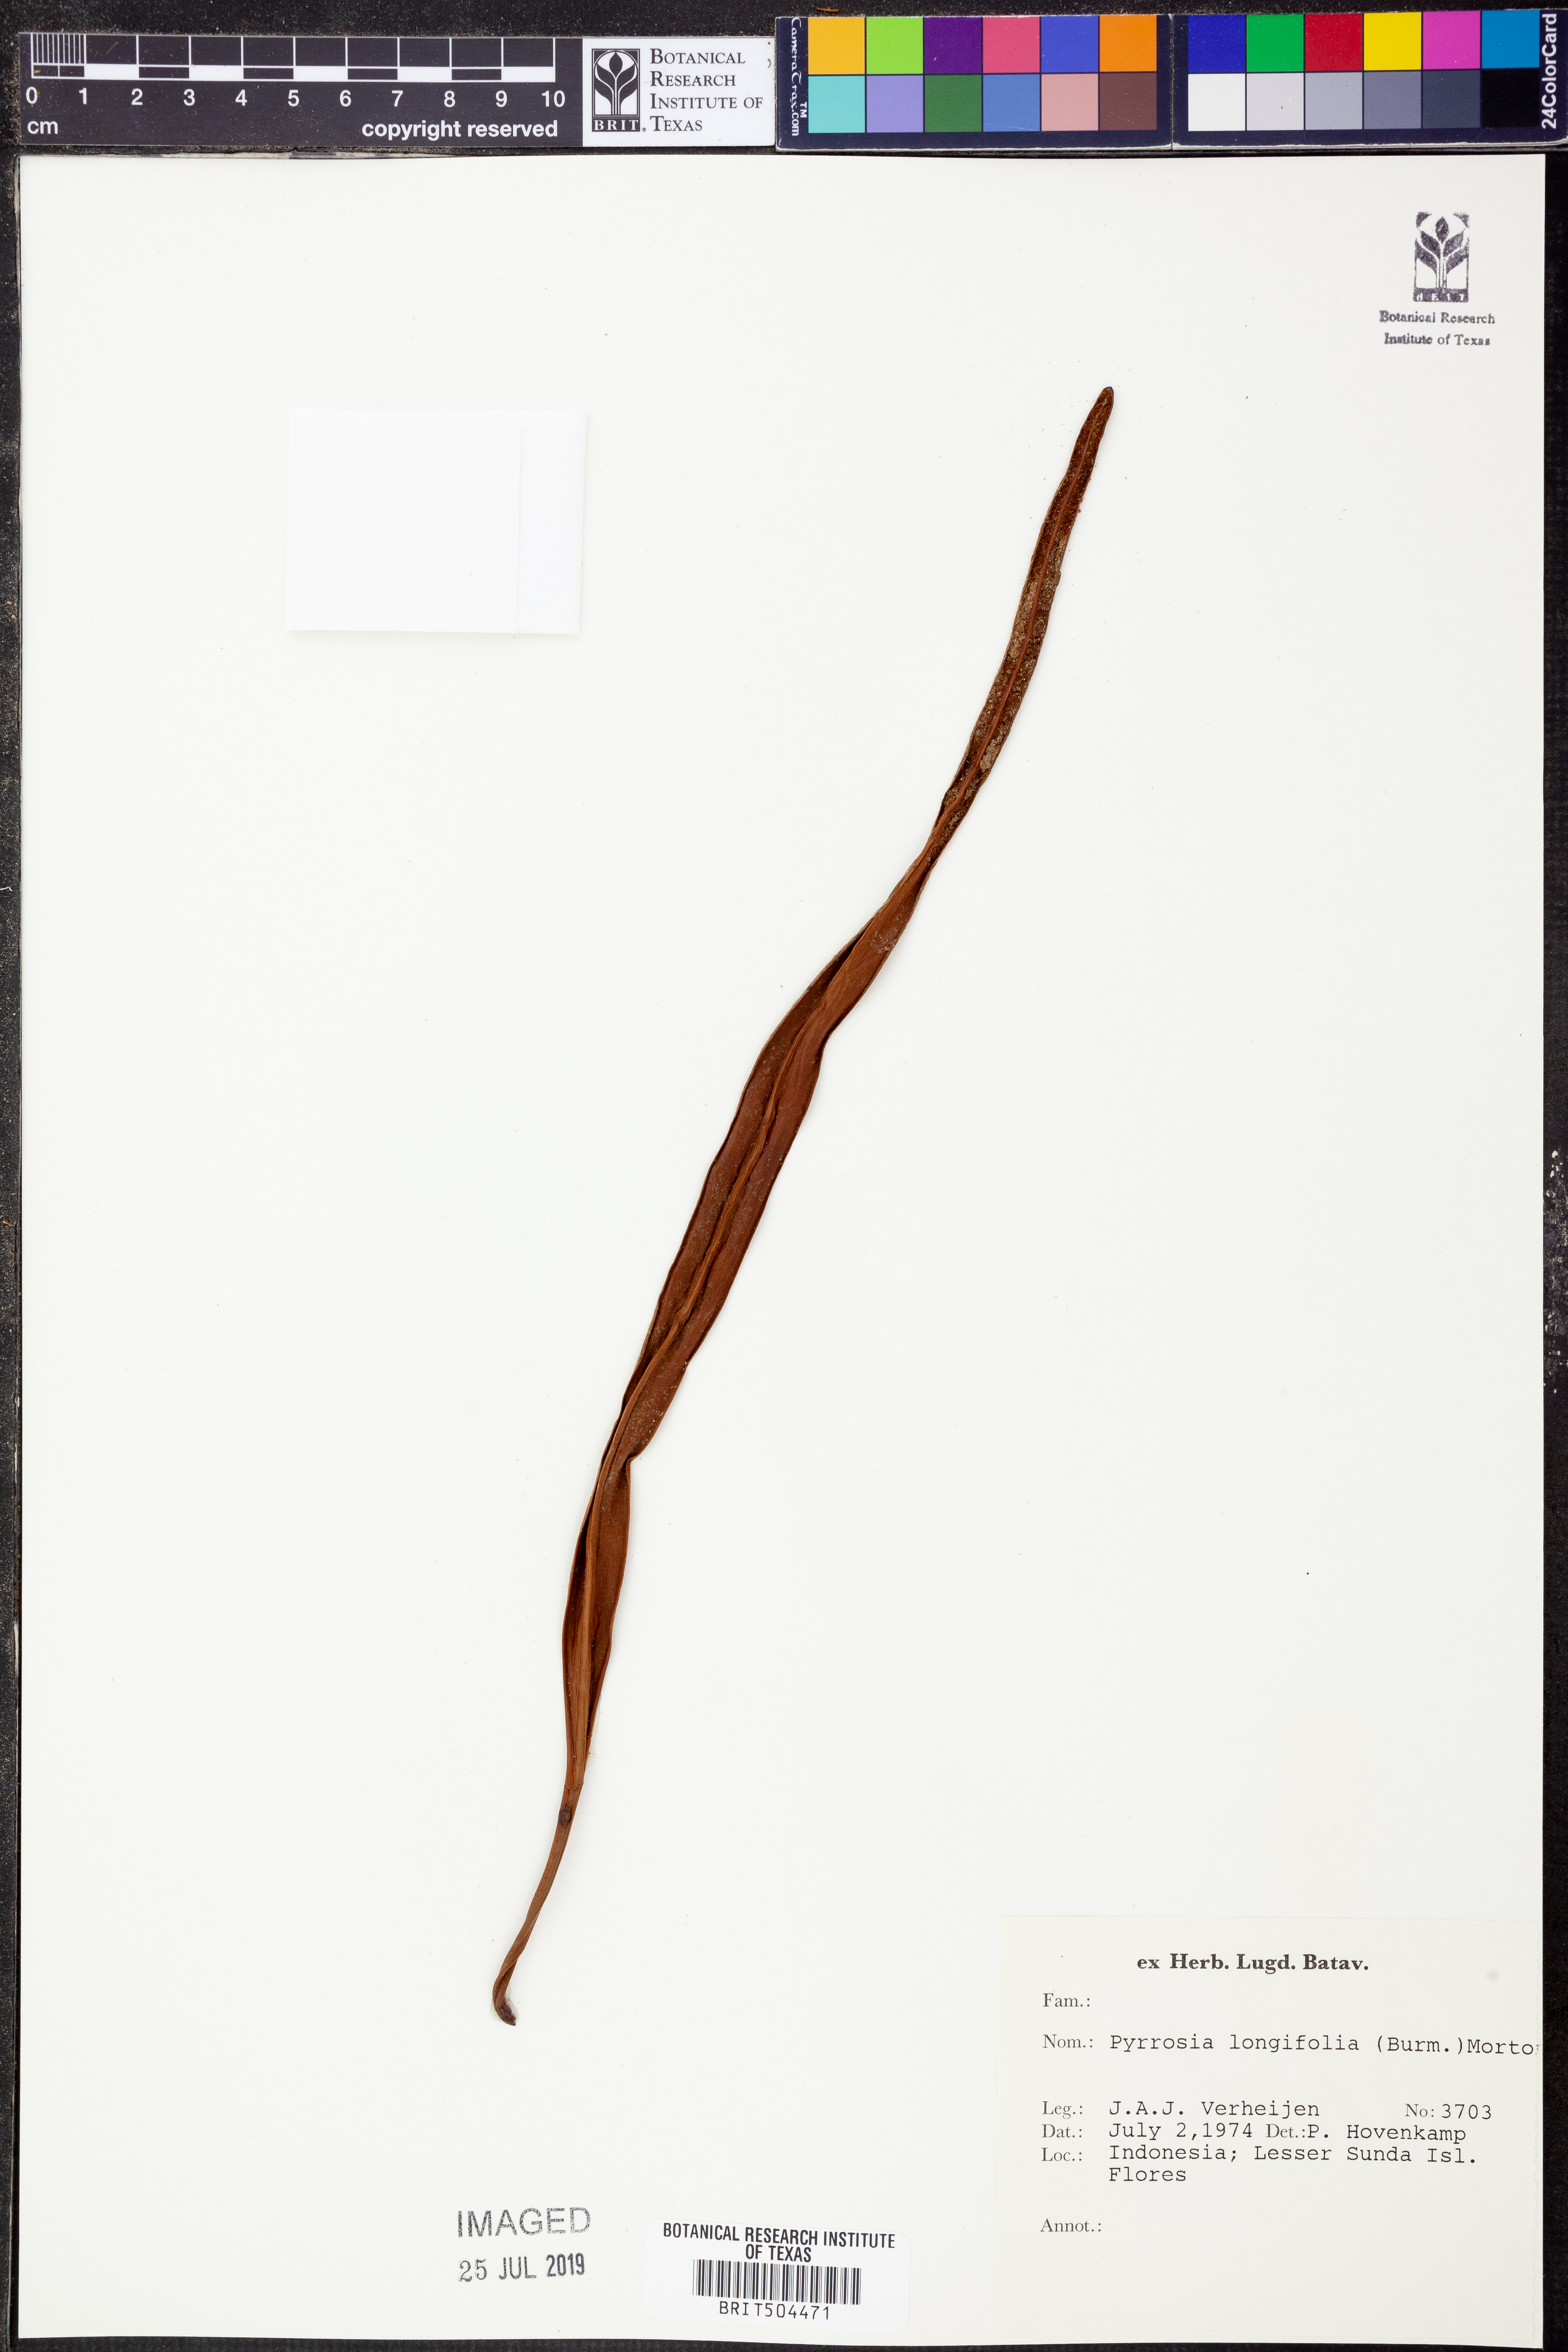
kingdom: Plantae
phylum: Tracheophyta
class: Polypodiopsida
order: Polypodiales
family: Polypodiaceae
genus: Pyrrosia
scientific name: Pyrrosia longifolia
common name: Long-leaved felt fern
